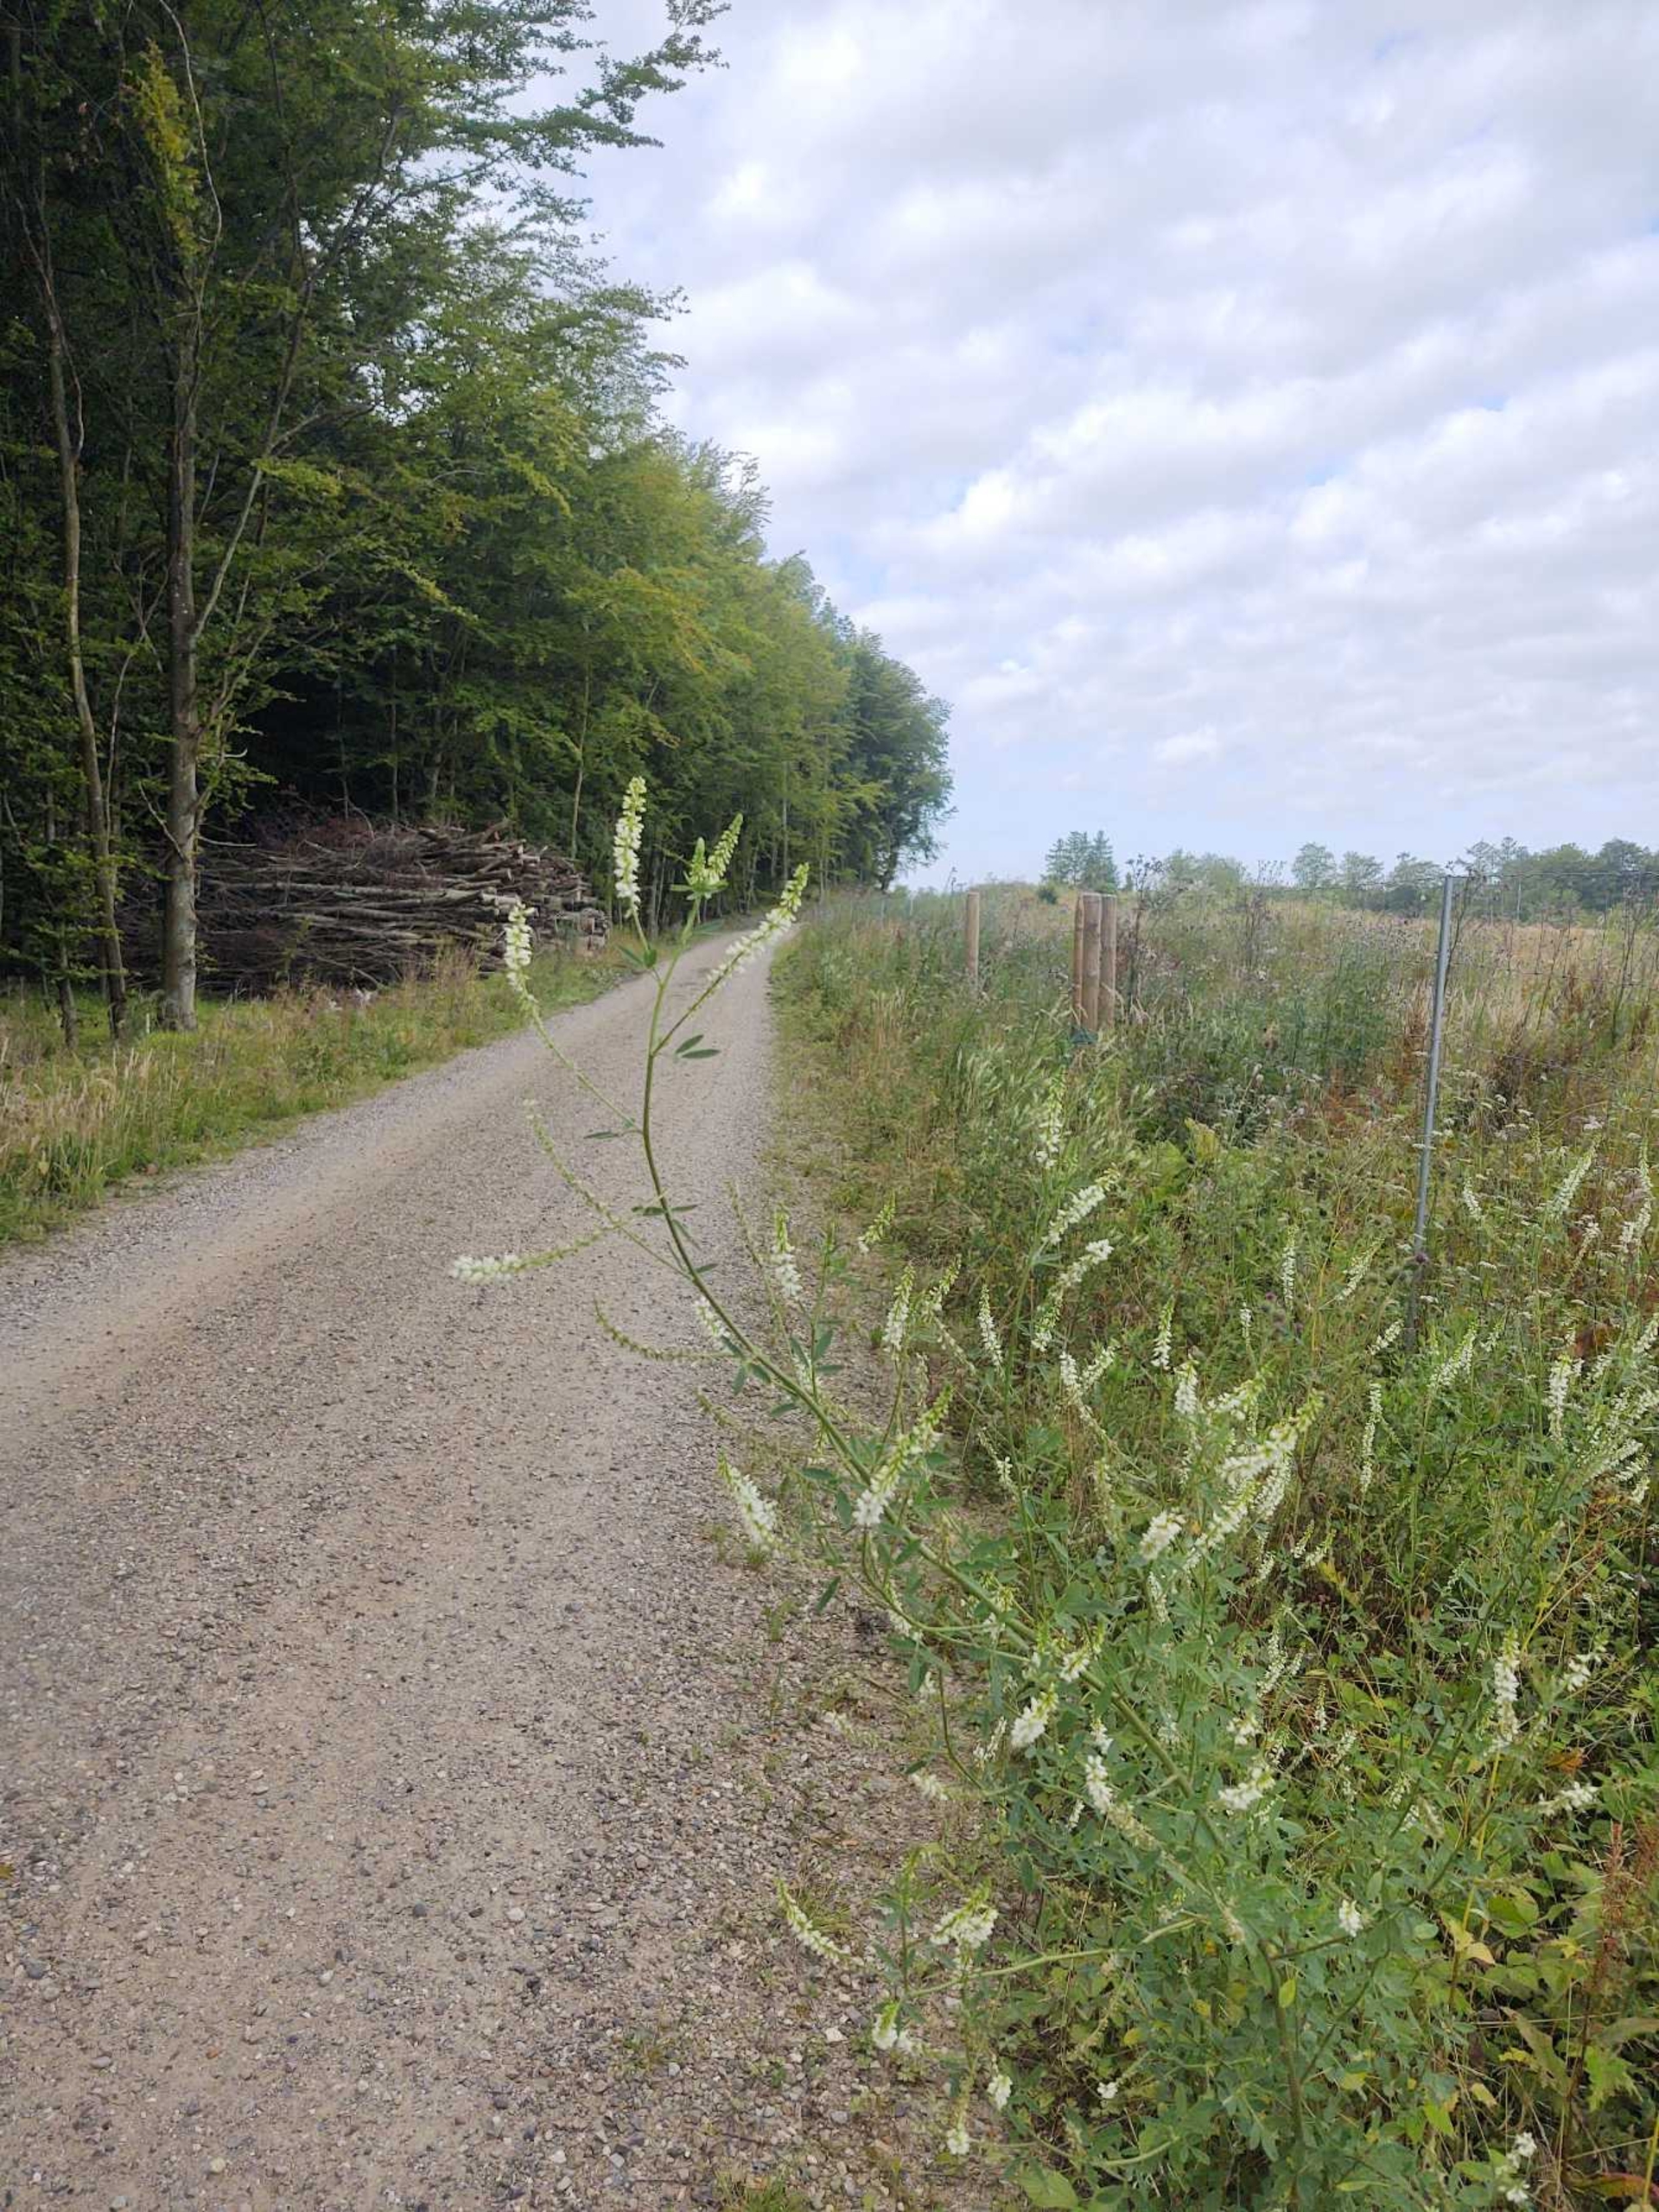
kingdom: Plantae
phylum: Tracheophyta
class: Magnoliopsida
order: Fabales
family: Fabaceae
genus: Melilotus
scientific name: Melilotus albus
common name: Hvid stenkløver
